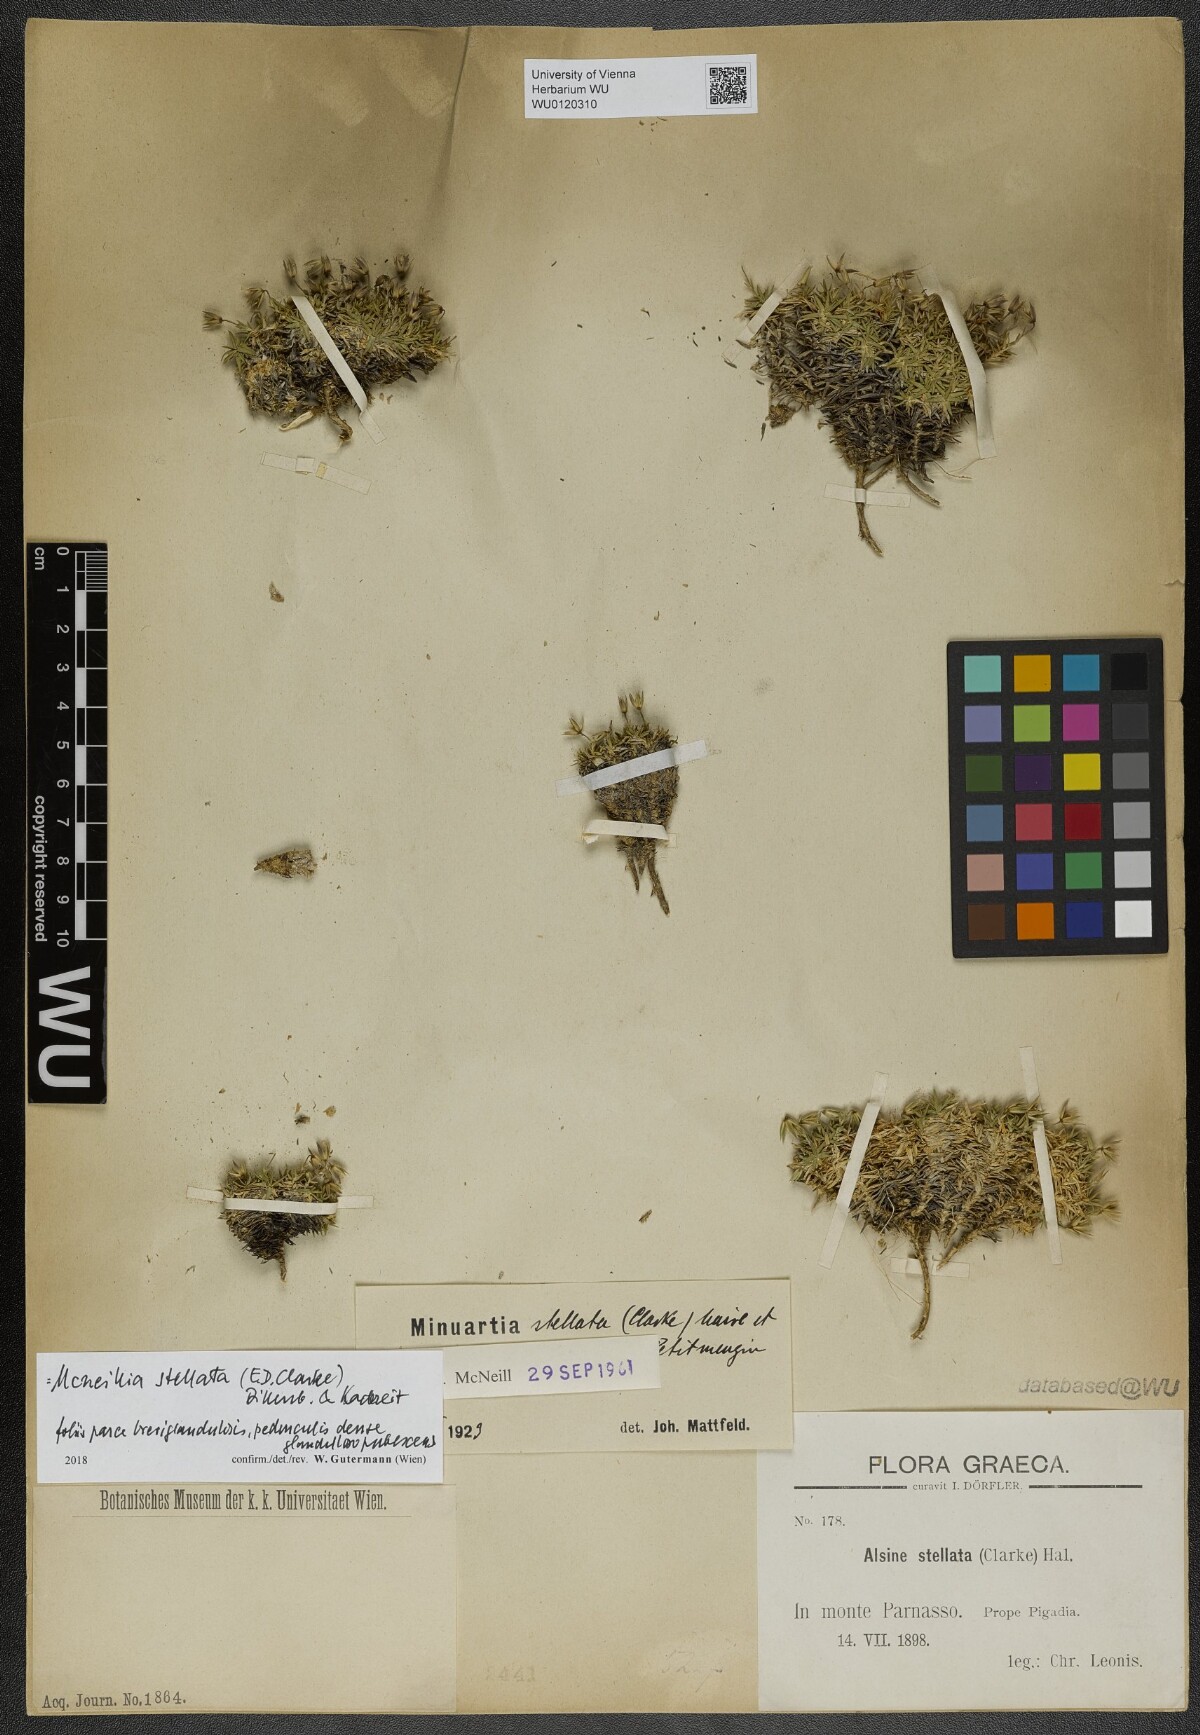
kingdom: Plantae
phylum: Tracheophyta
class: Magnoliopsida
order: Caryophyllales
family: Caryophyllaceae
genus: Mcneillia
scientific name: Mcneillia stellata
